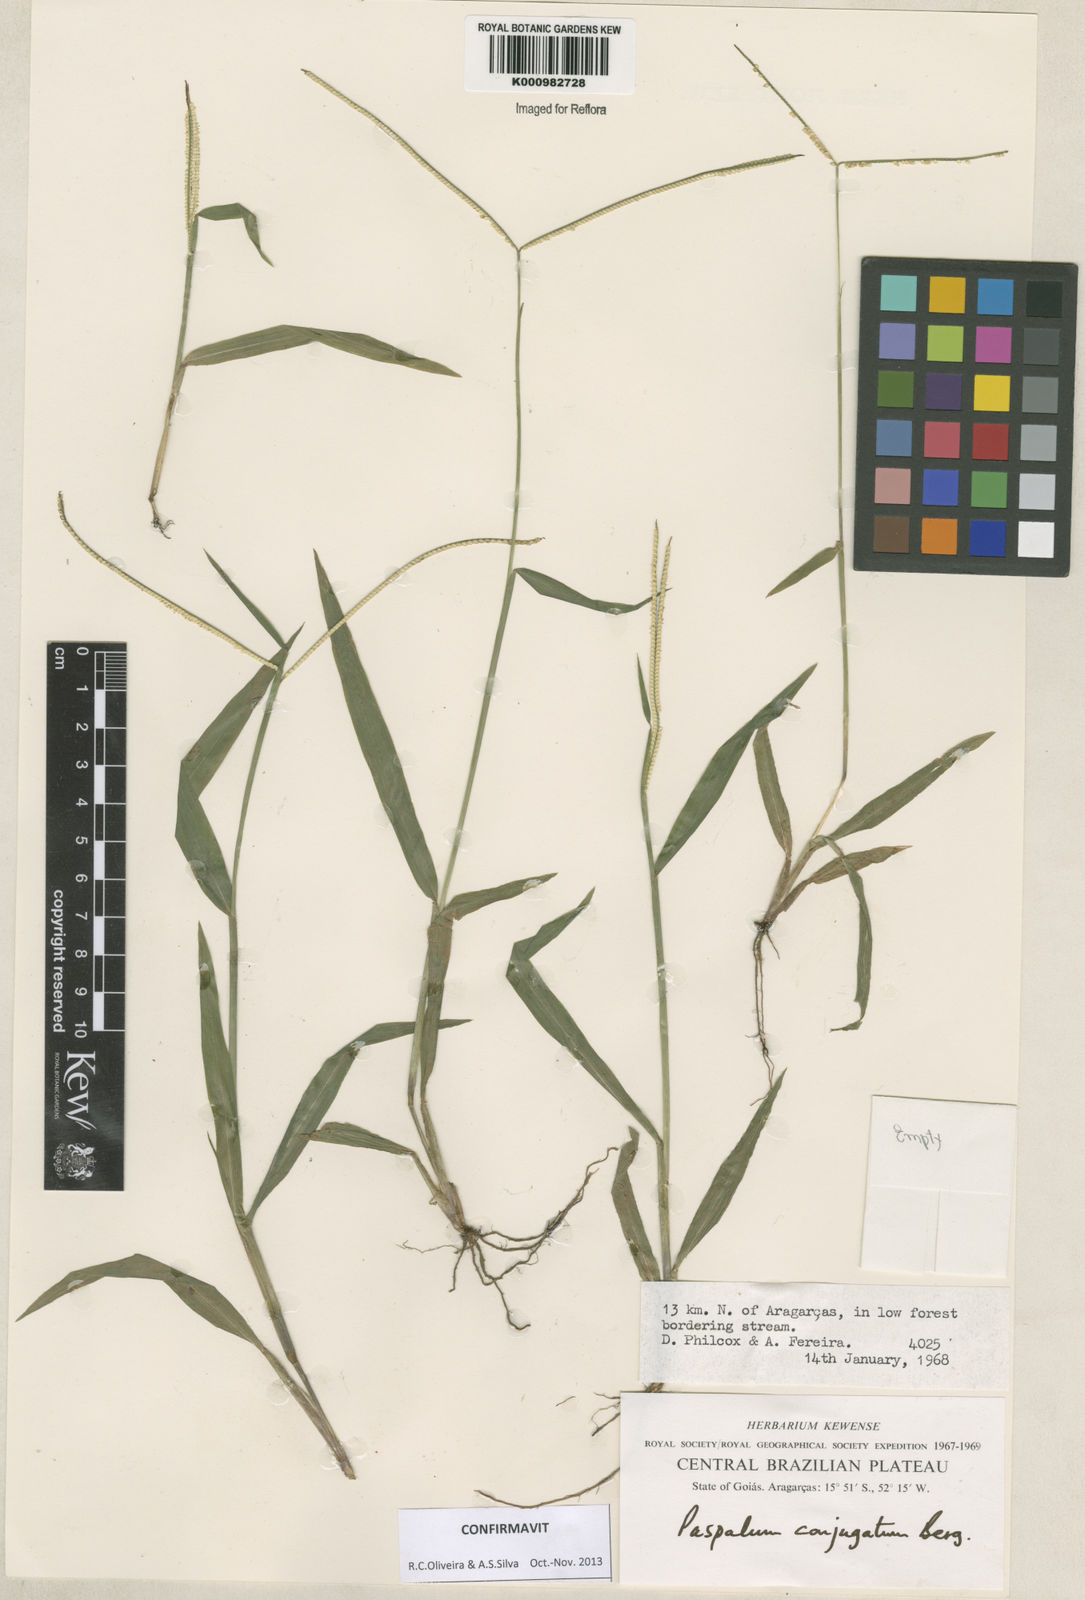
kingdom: Plantae
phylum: Tracheophyta
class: Liliopsida
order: Poales
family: Poaceae
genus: Paspalum
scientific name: Paspalum conjugatum
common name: Hilograss
